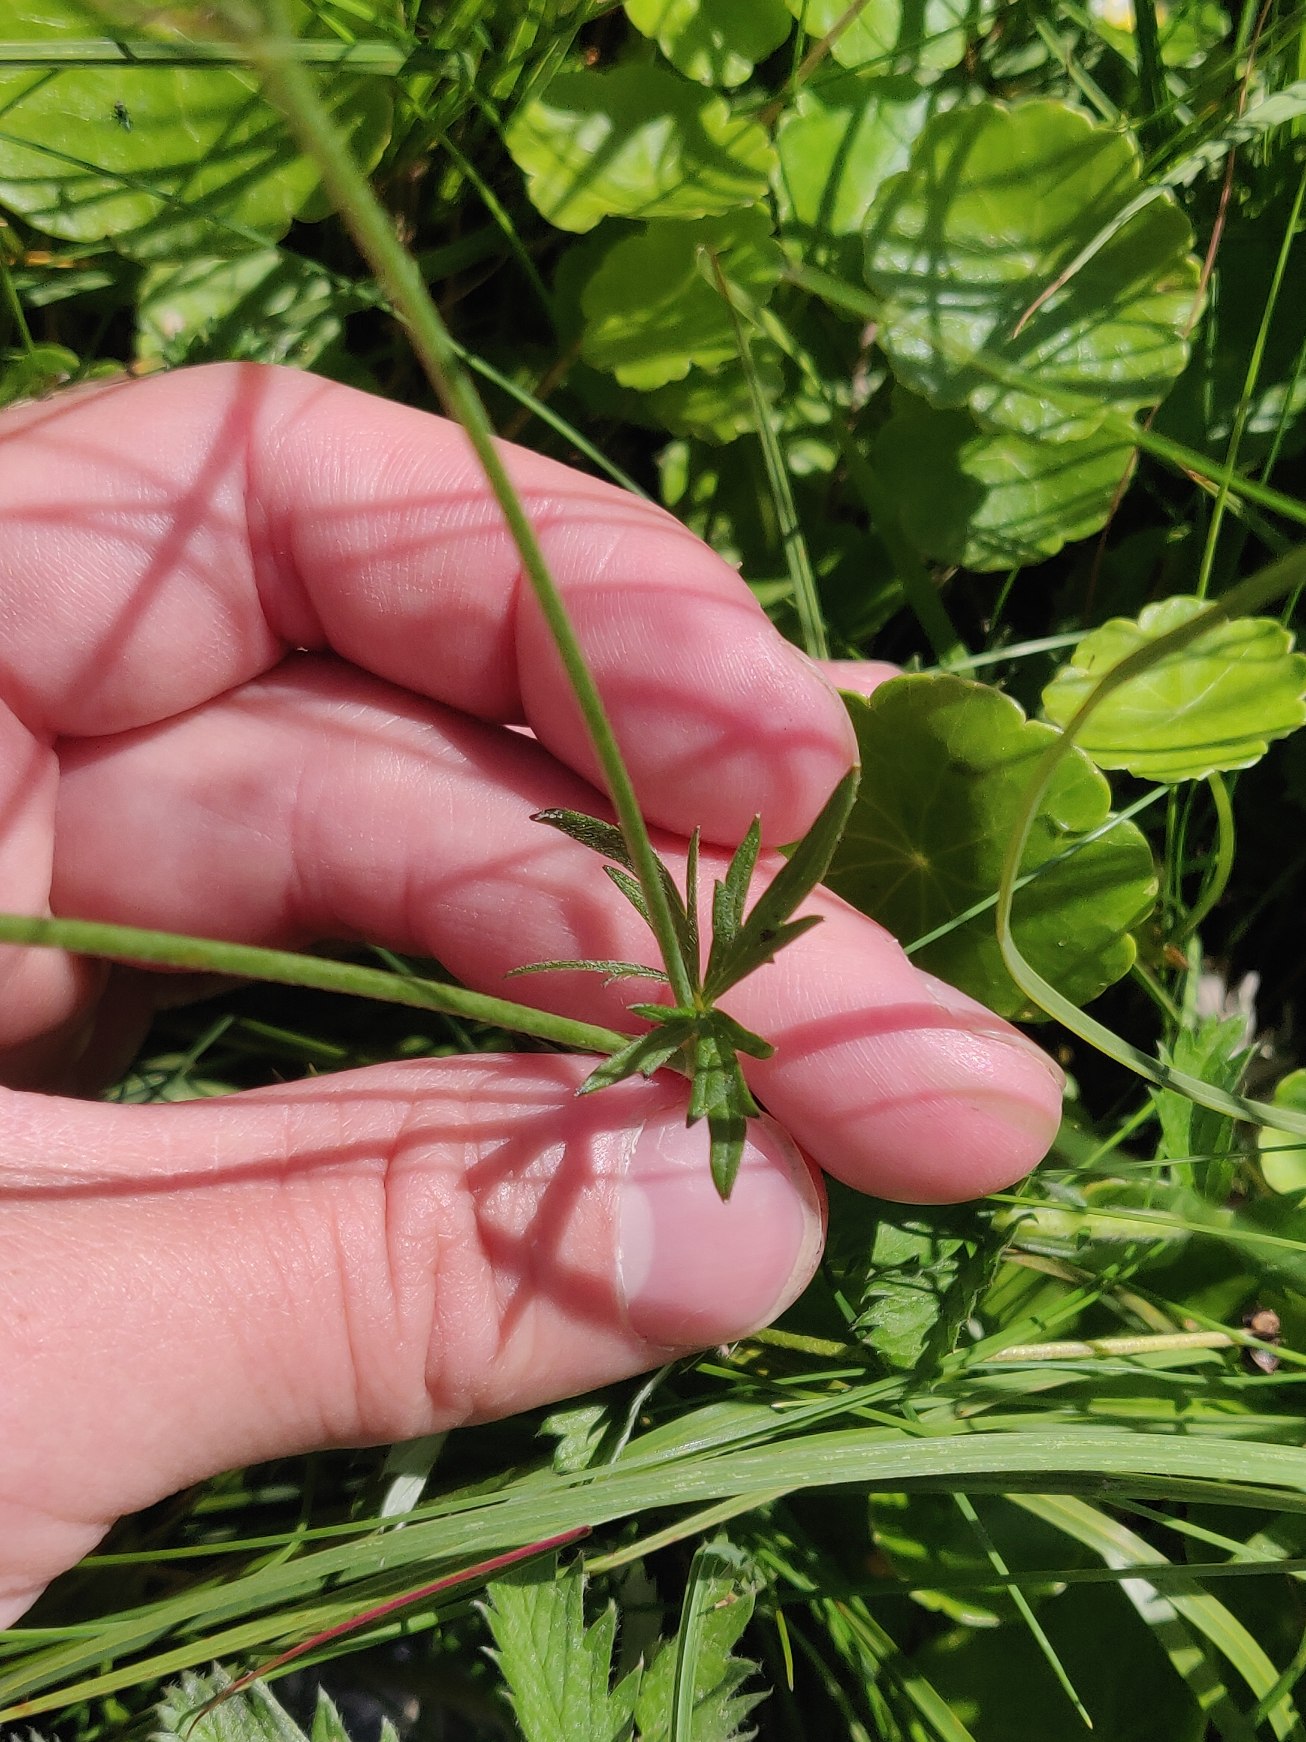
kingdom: Plantae
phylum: Tracheophyta
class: Magnoliopsida
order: Ranunculales
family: Ranunculaceae
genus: Ranunculus
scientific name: Ranunculus acris
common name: Bidende ranunkel
